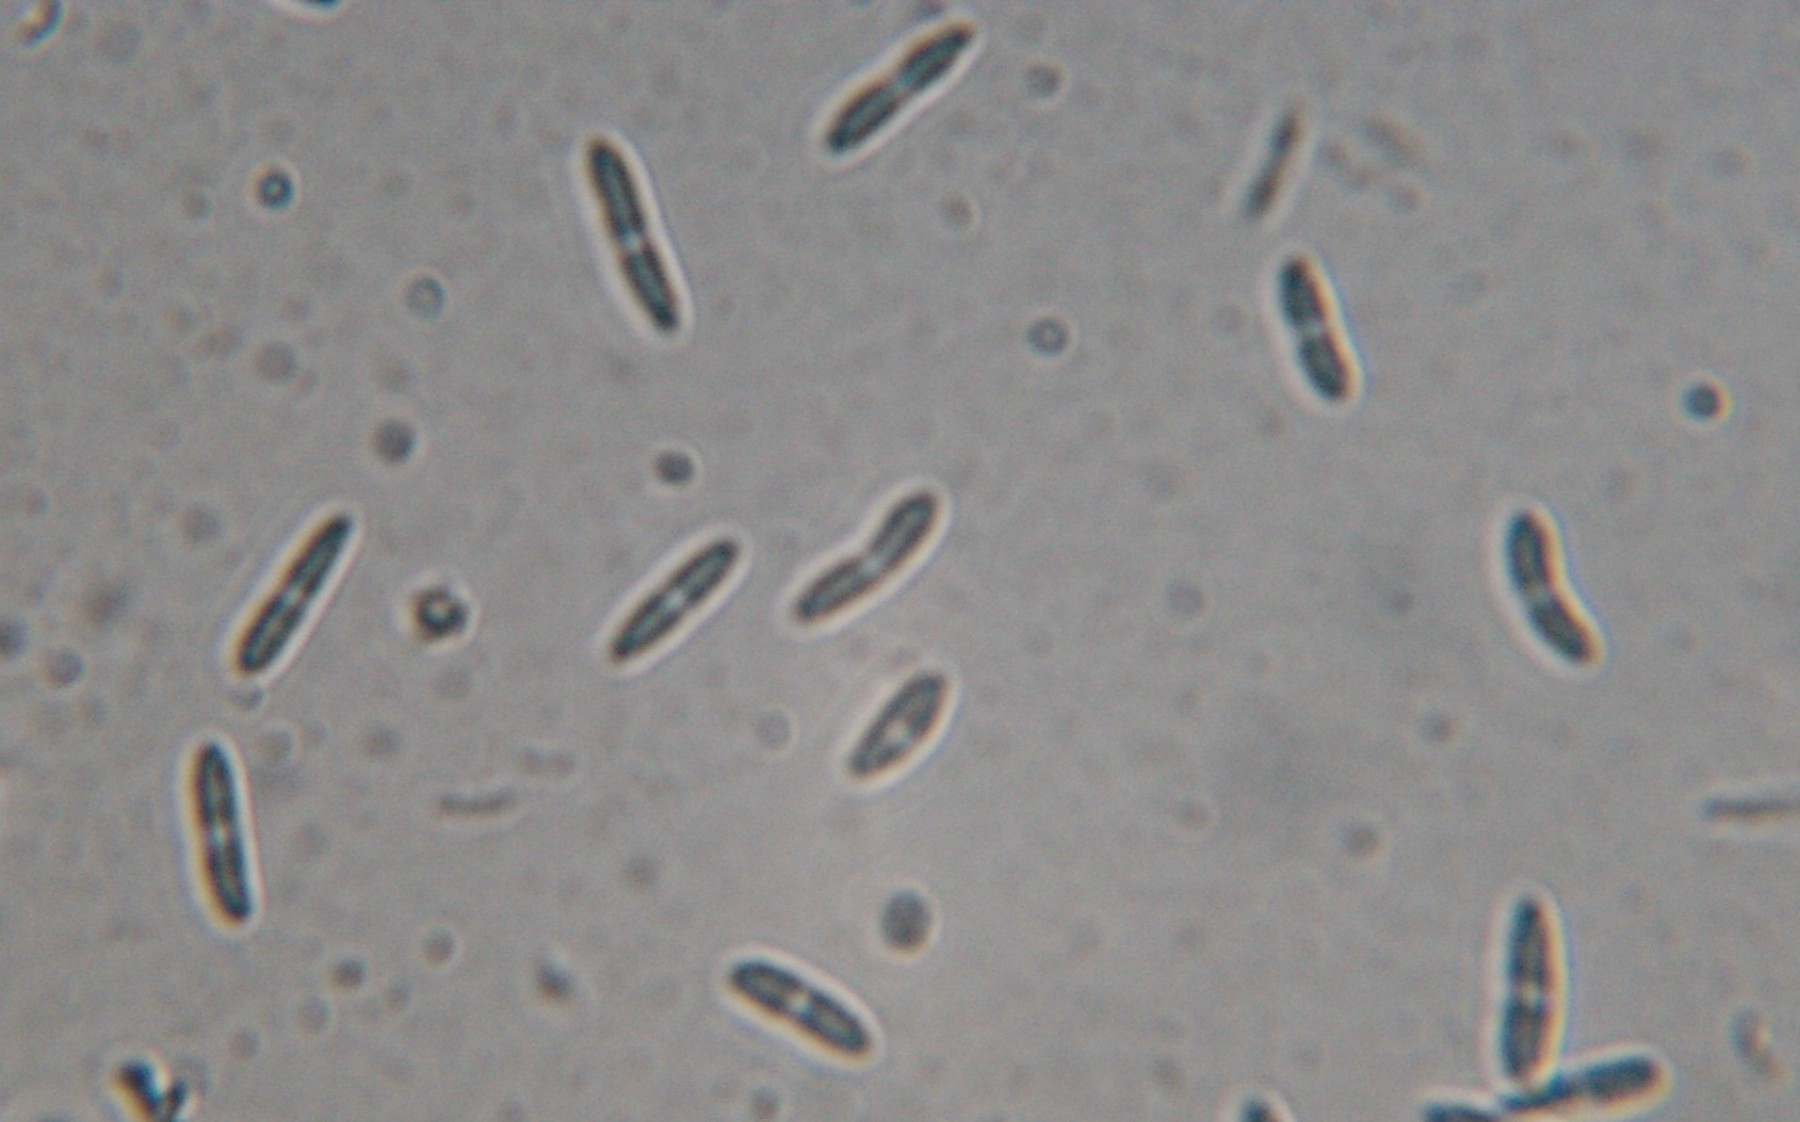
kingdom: Fungi
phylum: Ascomycota
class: Sordariomycetes
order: Diaporthales
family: Diaporthaceae
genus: Diaporthopsis
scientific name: Diaporthopsis urticae
